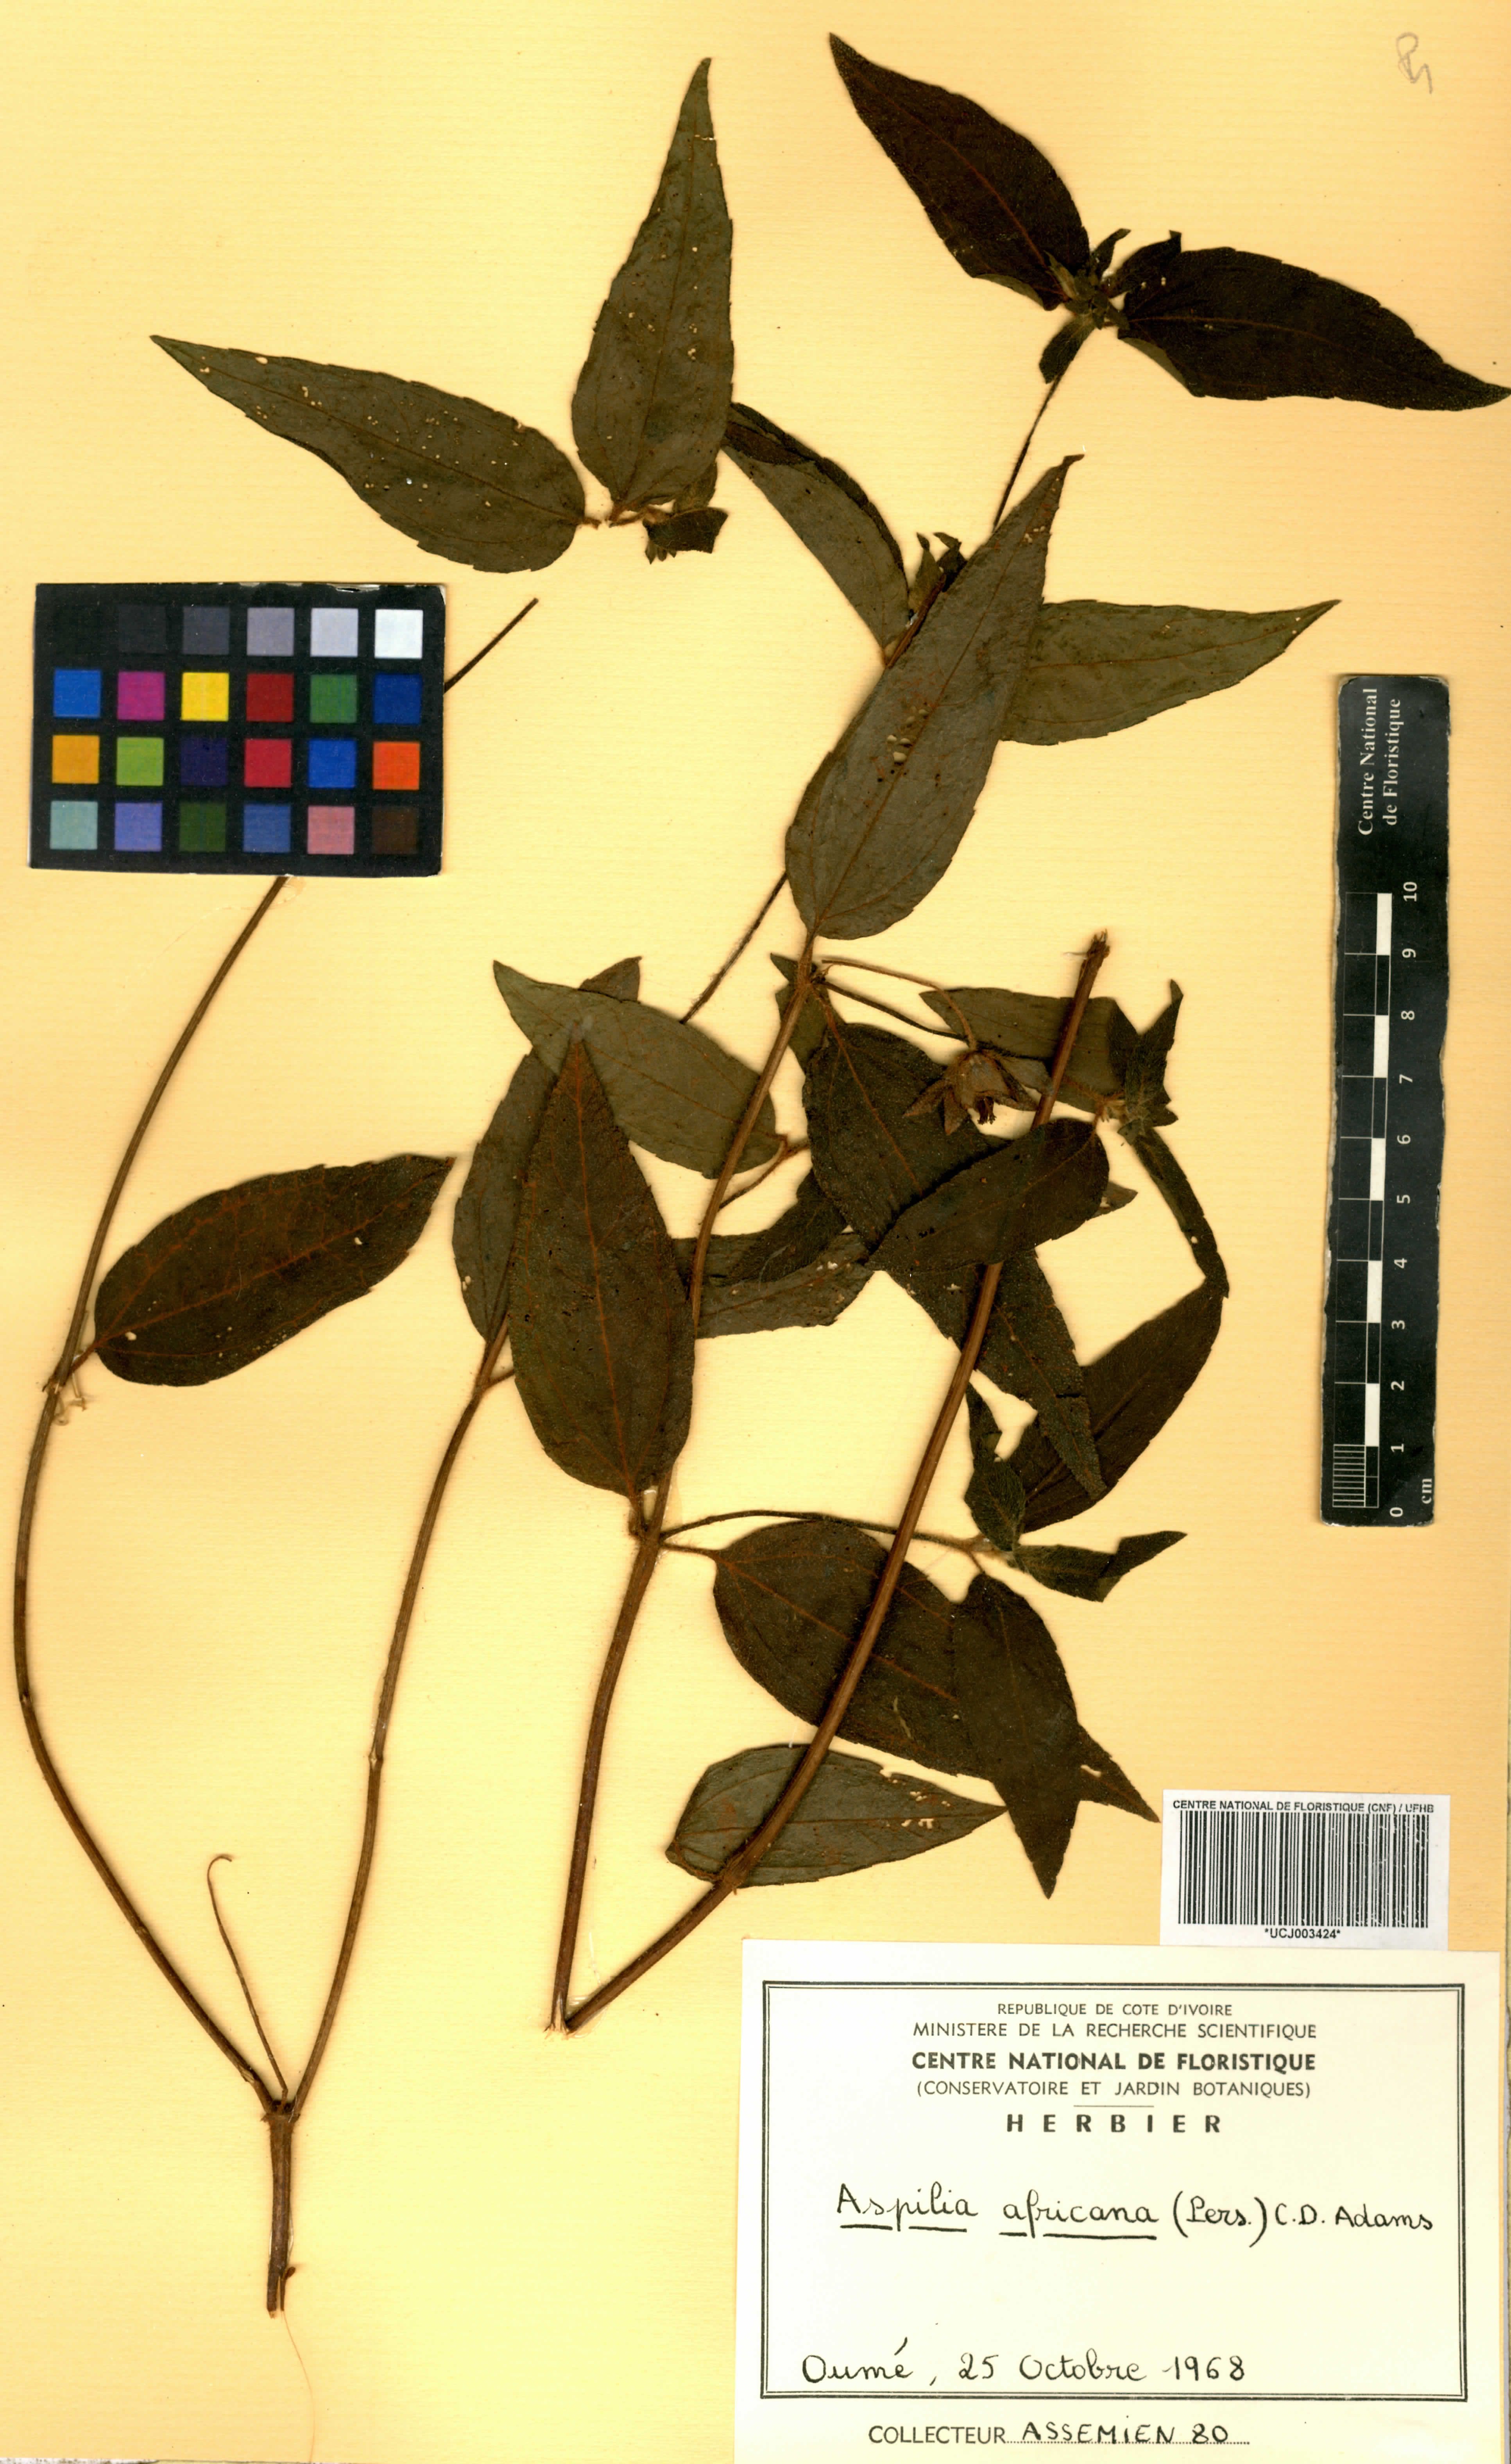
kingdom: Plantae
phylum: Tracheophyta
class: Magnoliopsida
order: Asterales
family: Asteraceae
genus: Aspilia
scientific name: Aspilia africana
